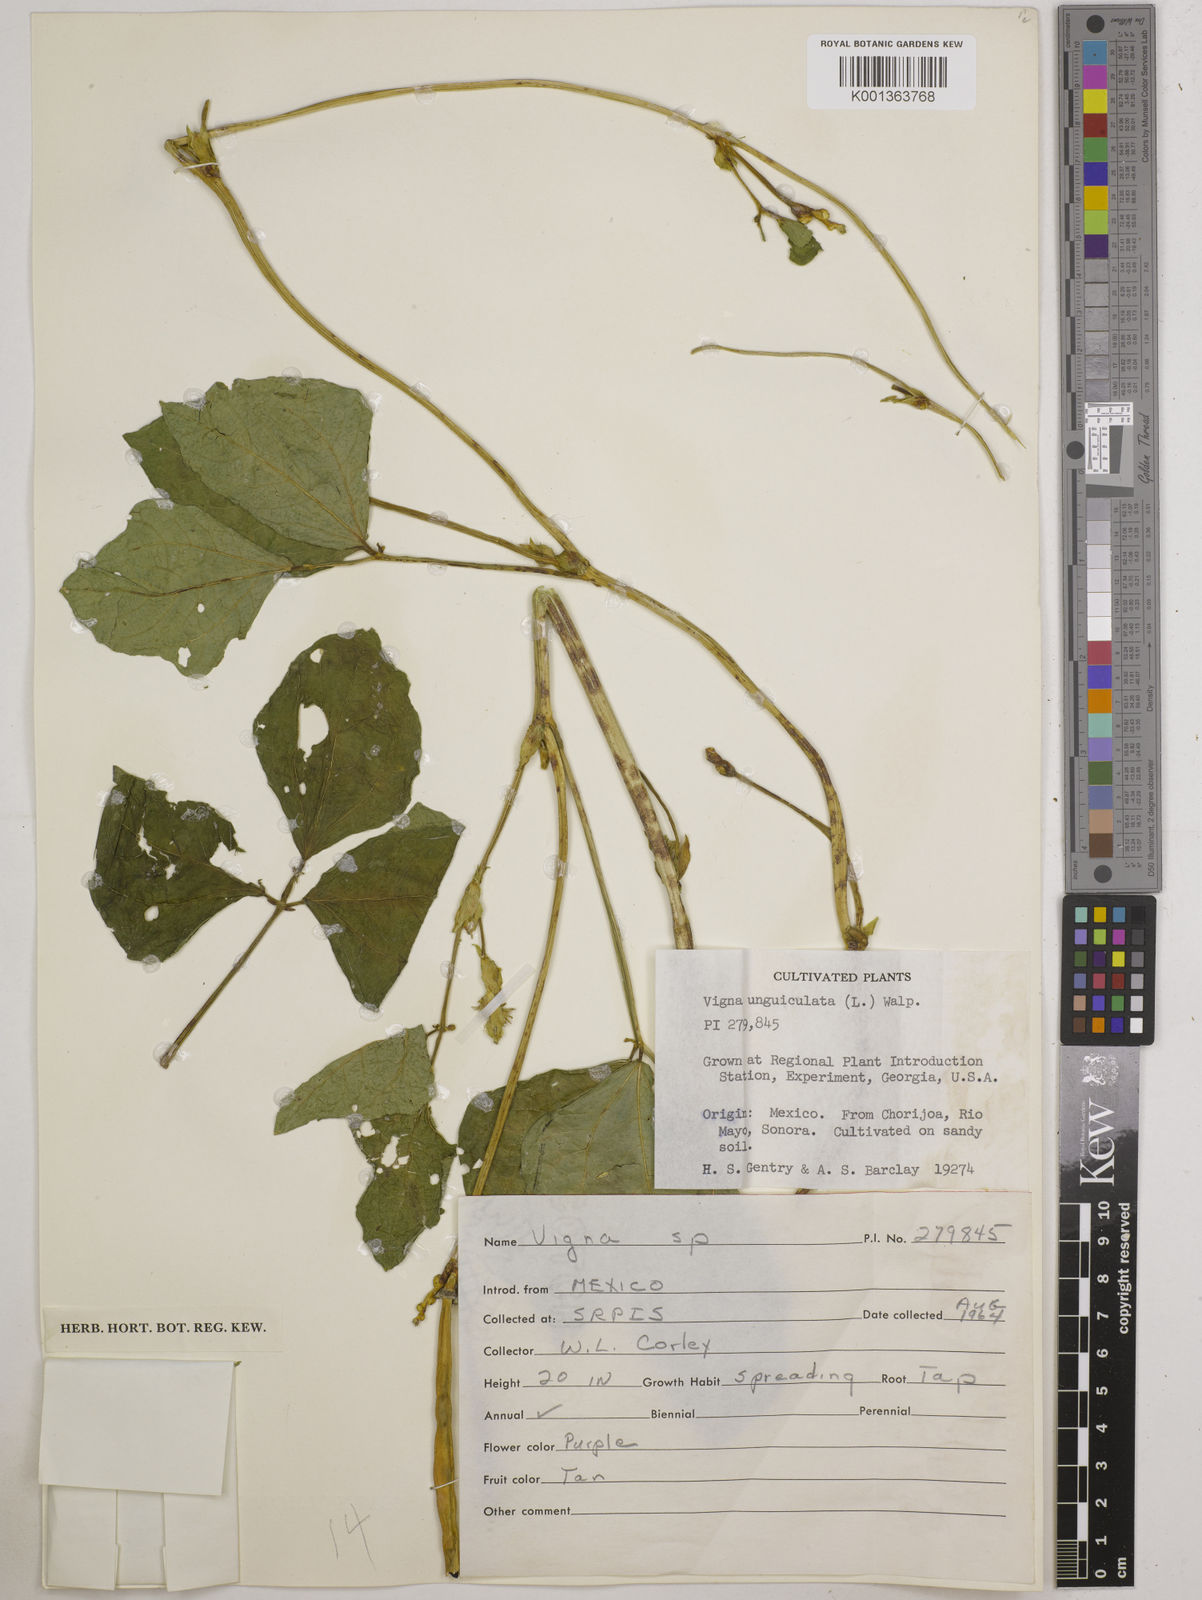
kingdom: Plantae
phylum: Tracheophyta
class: Magnoliopsida
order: Fabales
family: Fabaceae
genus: Vigna
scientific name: Vigna unguiculata
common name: Cowpea
